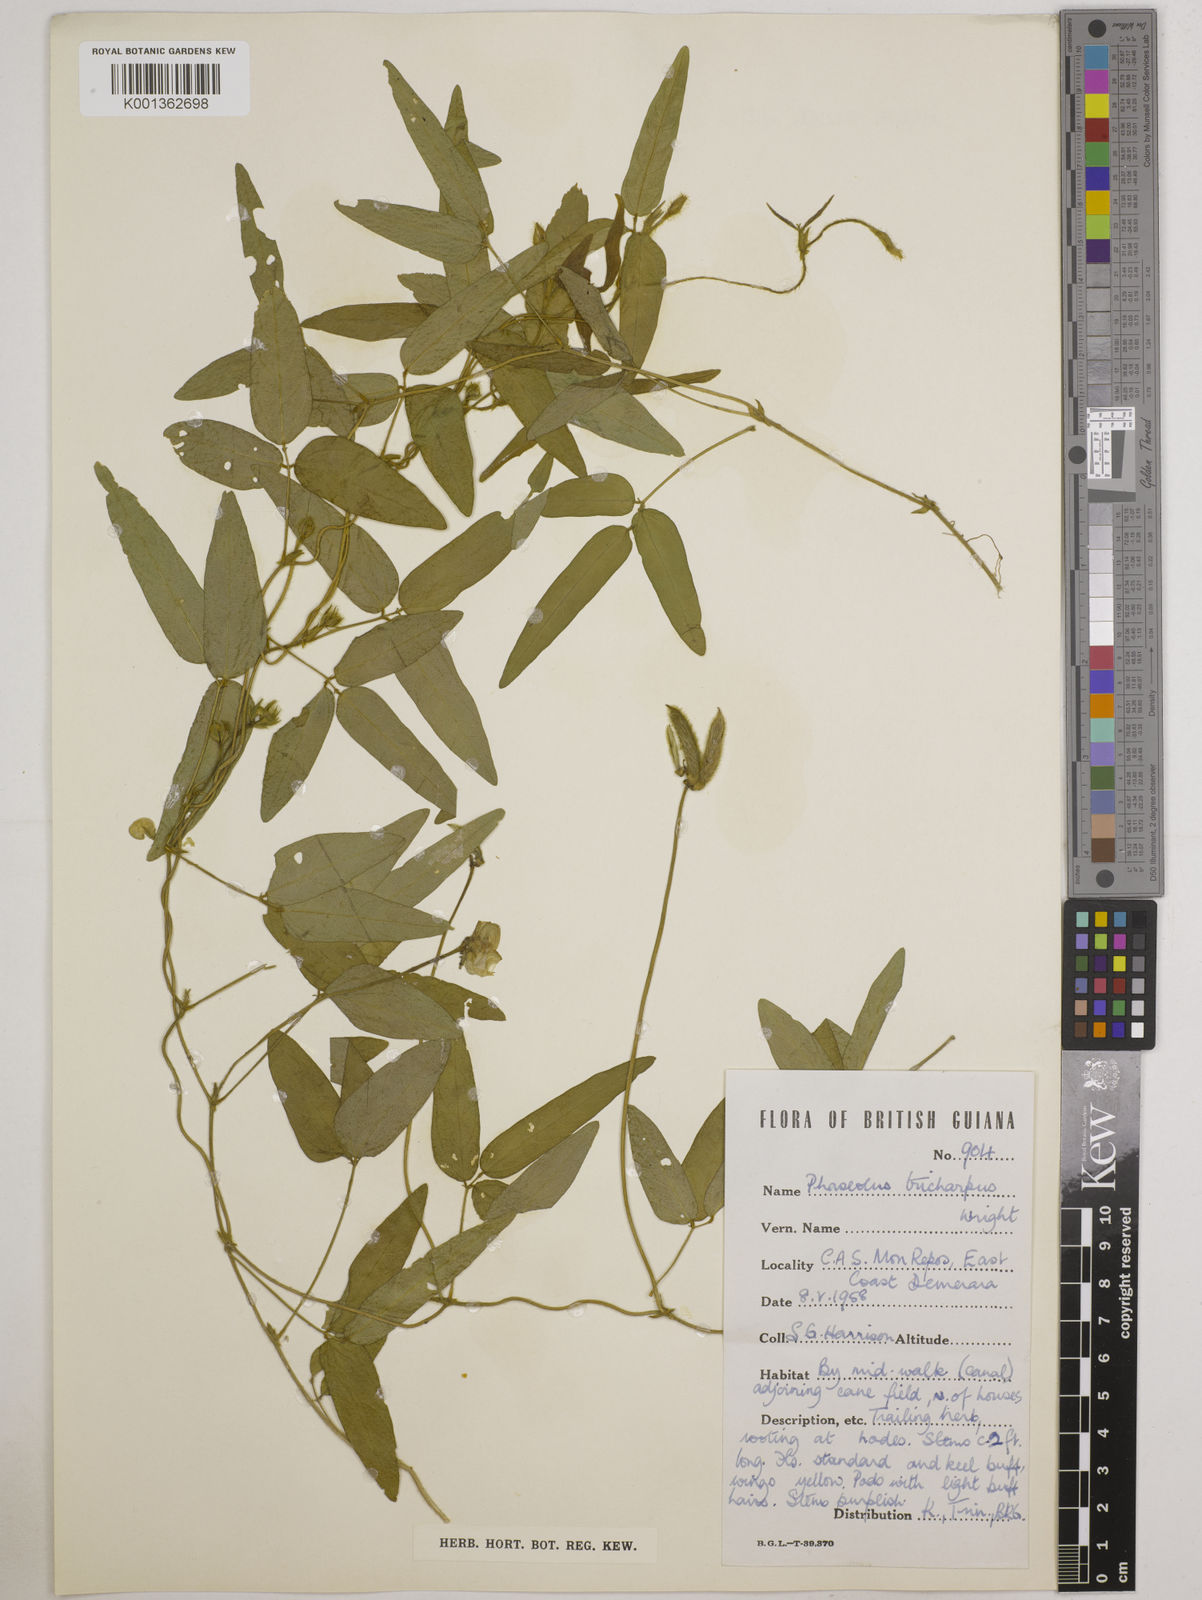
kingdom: Plantae
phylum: Tracheophyta
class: Magnoliopsida
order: Fabales
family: Fabaceae
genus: Vigna
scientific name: Vigna trichocarpa
